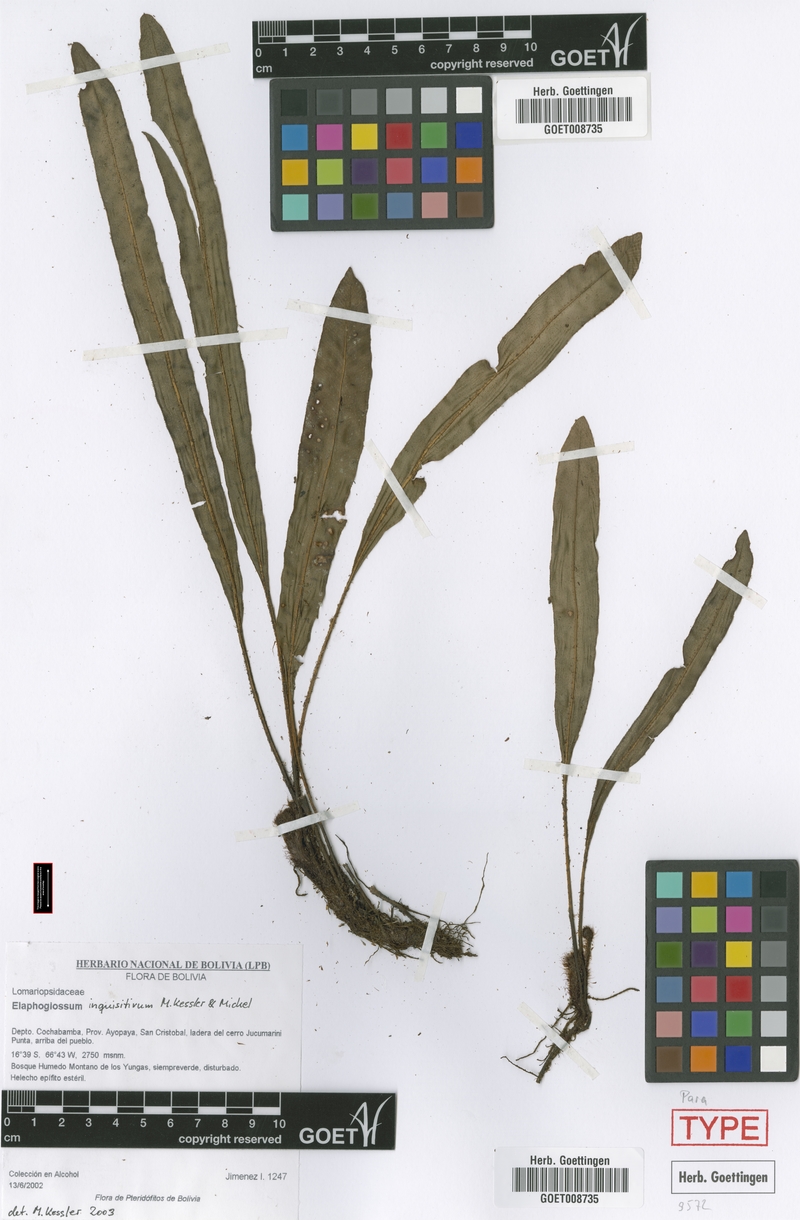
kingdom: Plantae
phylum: Tracheophyta
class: Polypodiopsida
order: Polypodiales
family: Dryopteridaceae
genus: Elaphoglossum
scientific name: Elaphoglossum inquisitivum
